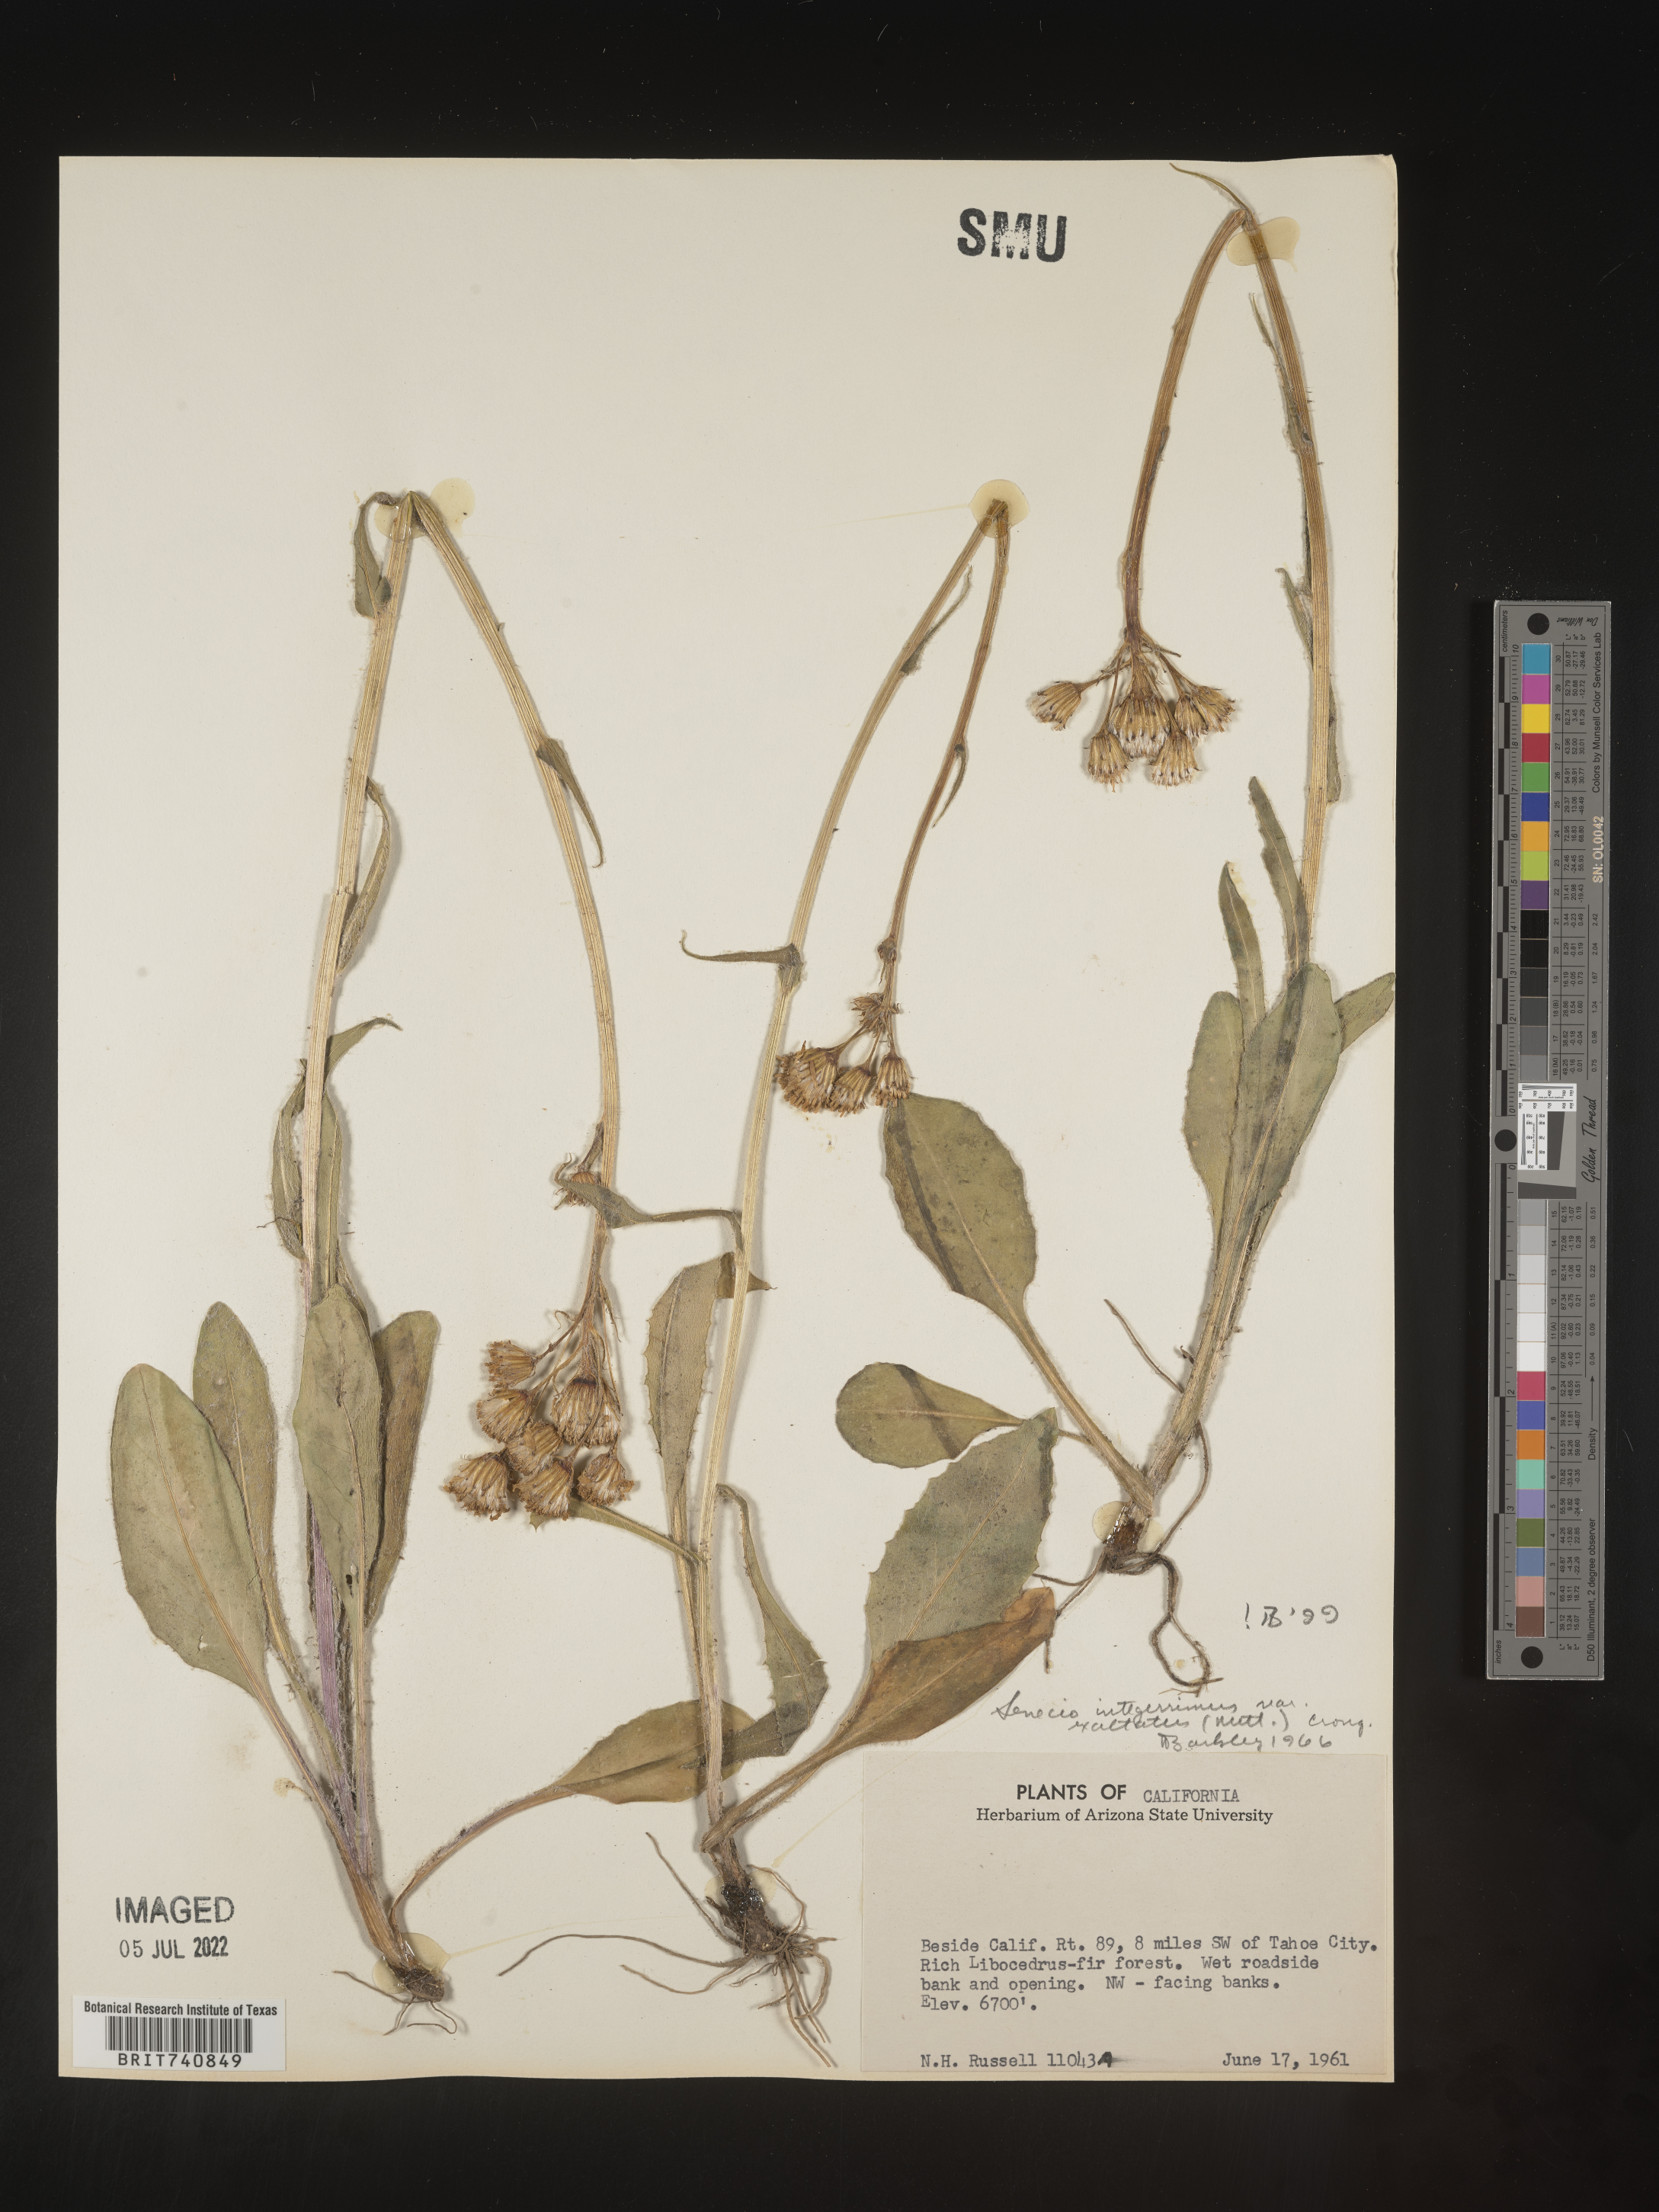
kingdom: Plantae
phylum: Tracheophyta
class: Magnoliopsida
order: Asterales
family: Asteraceae
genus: Senecio
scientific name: Senecio integerrimus
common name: Gaugeplant
